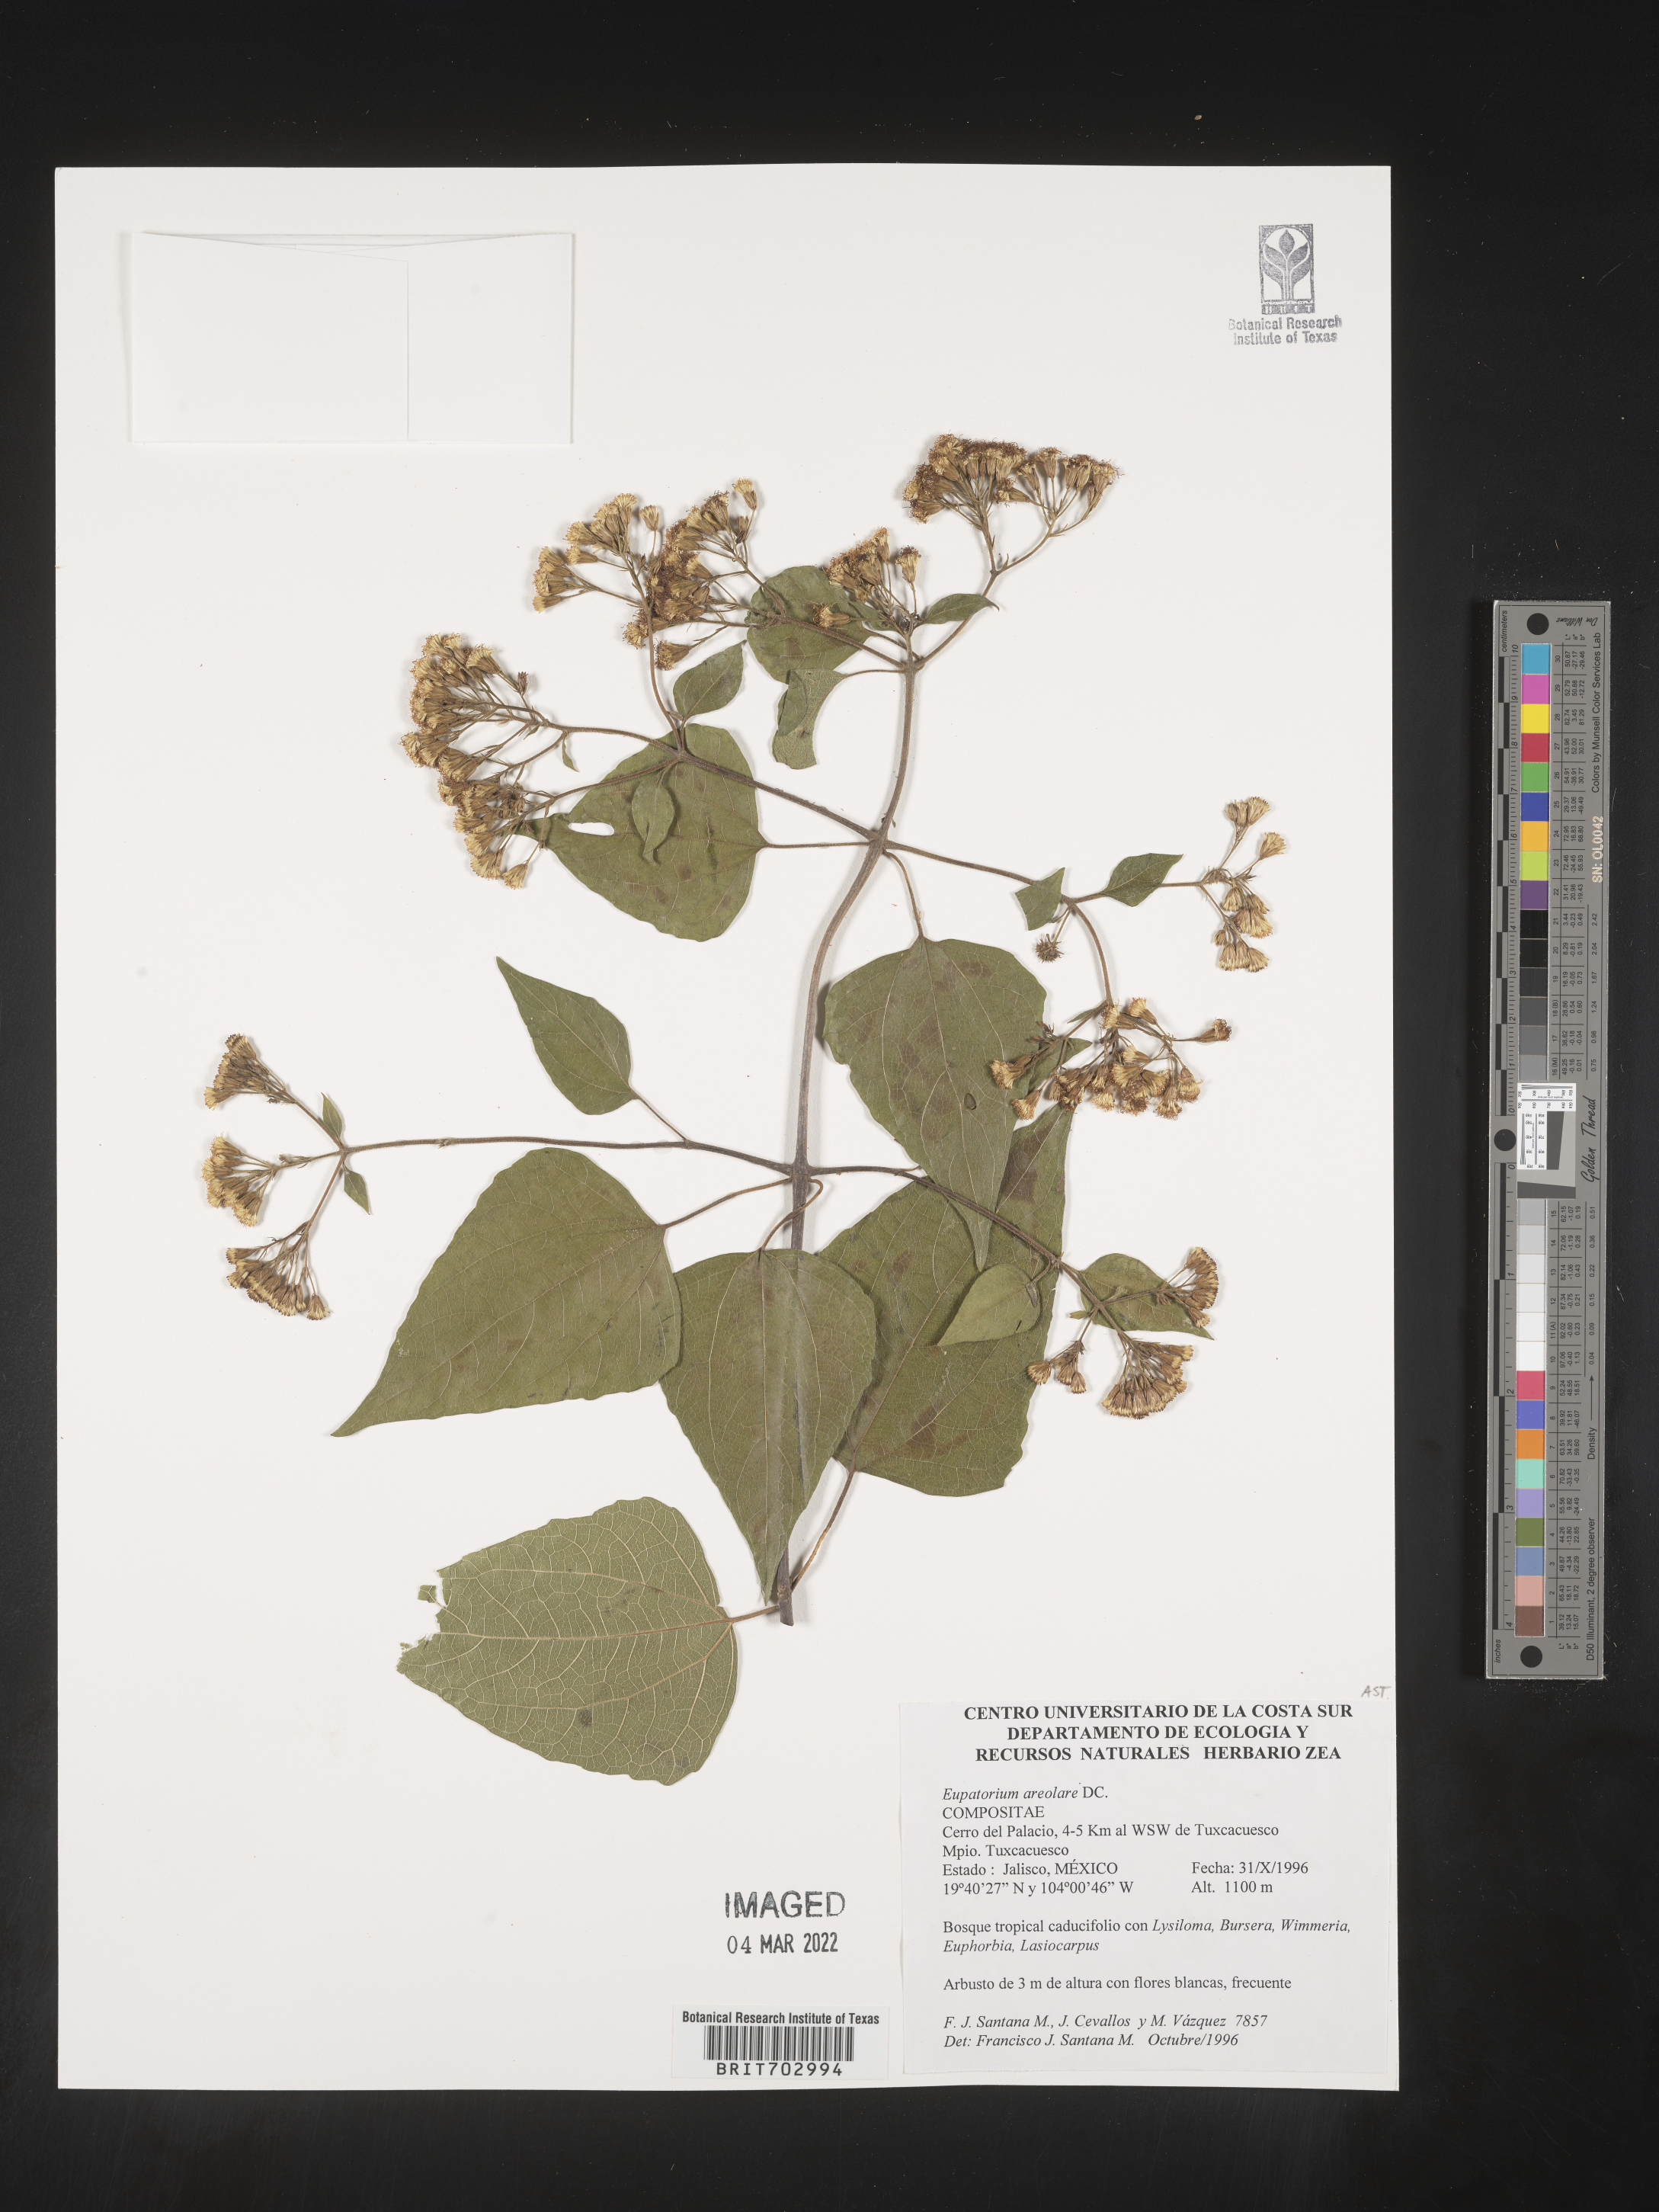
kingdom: Plantae
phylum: Tracheophyta
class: Magnoliopsida
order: Asterales
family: Asteraceae
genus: Eupatorium
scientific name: Eupatorium
